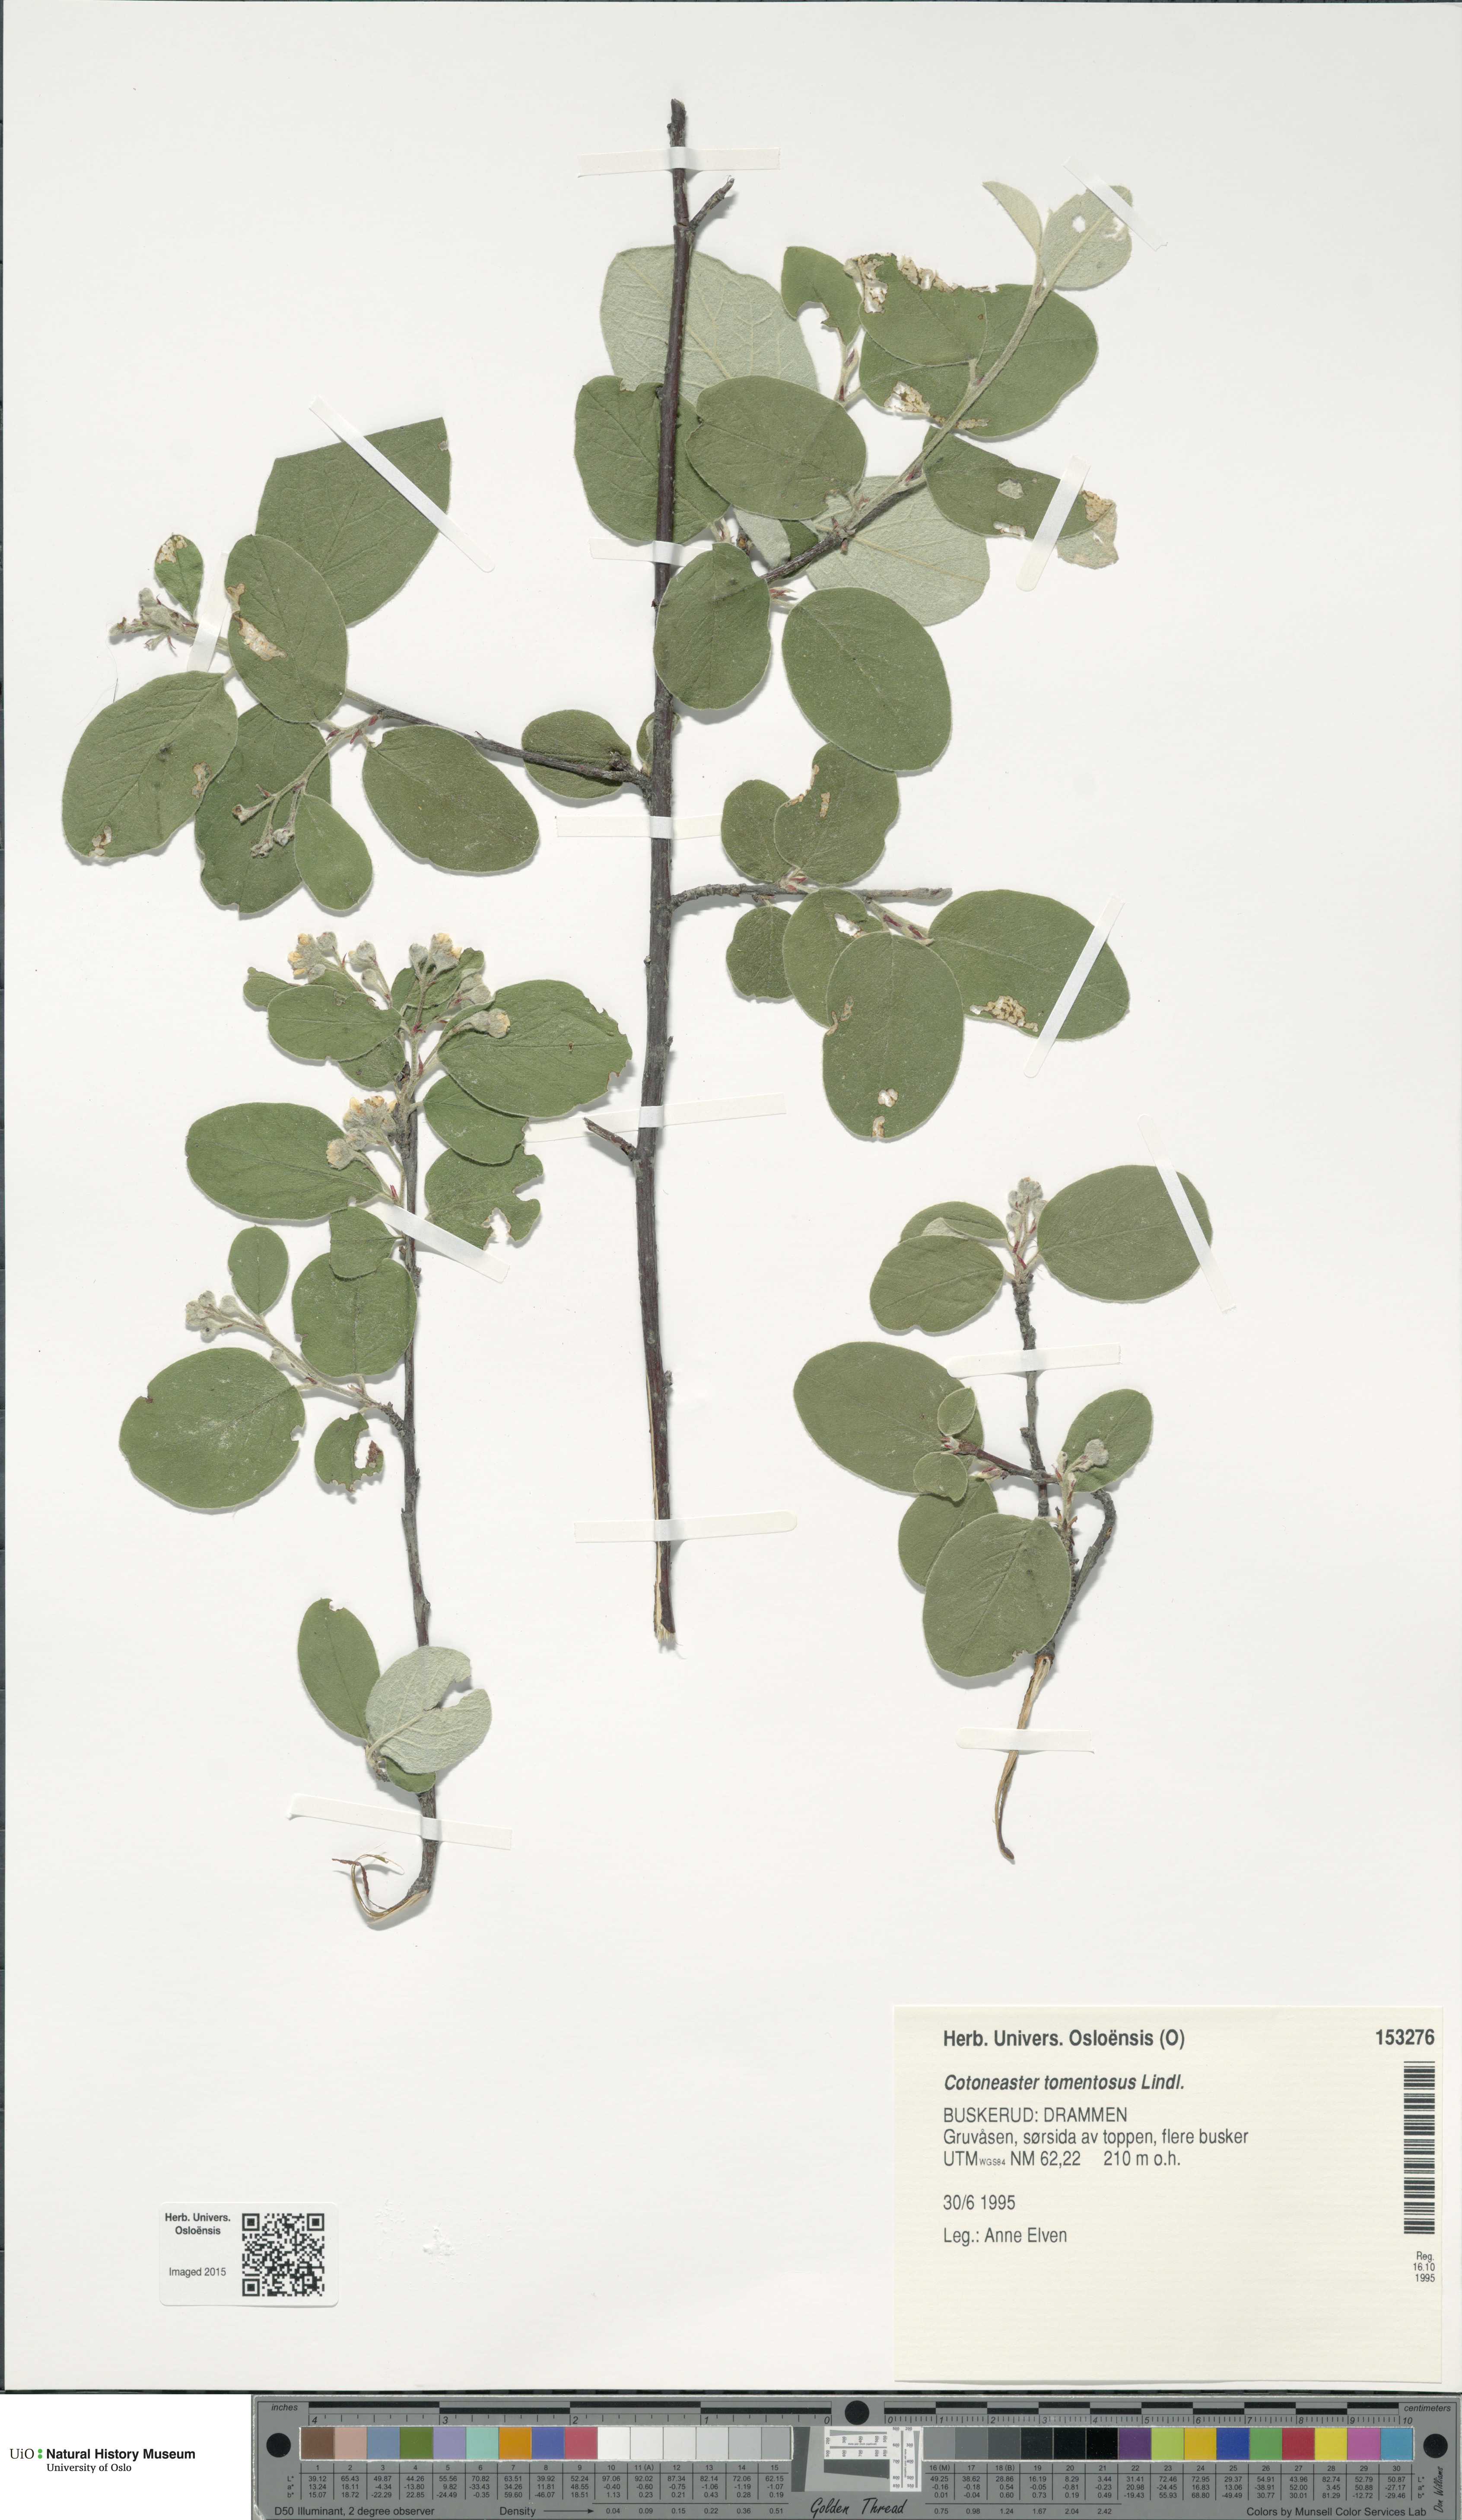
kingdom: Plantae
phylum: Tracheophyta
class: Magnoliopsida
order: Rosales
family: Rosaceae
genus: Cotoneaster
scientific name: Cotoneaster tomentosus
